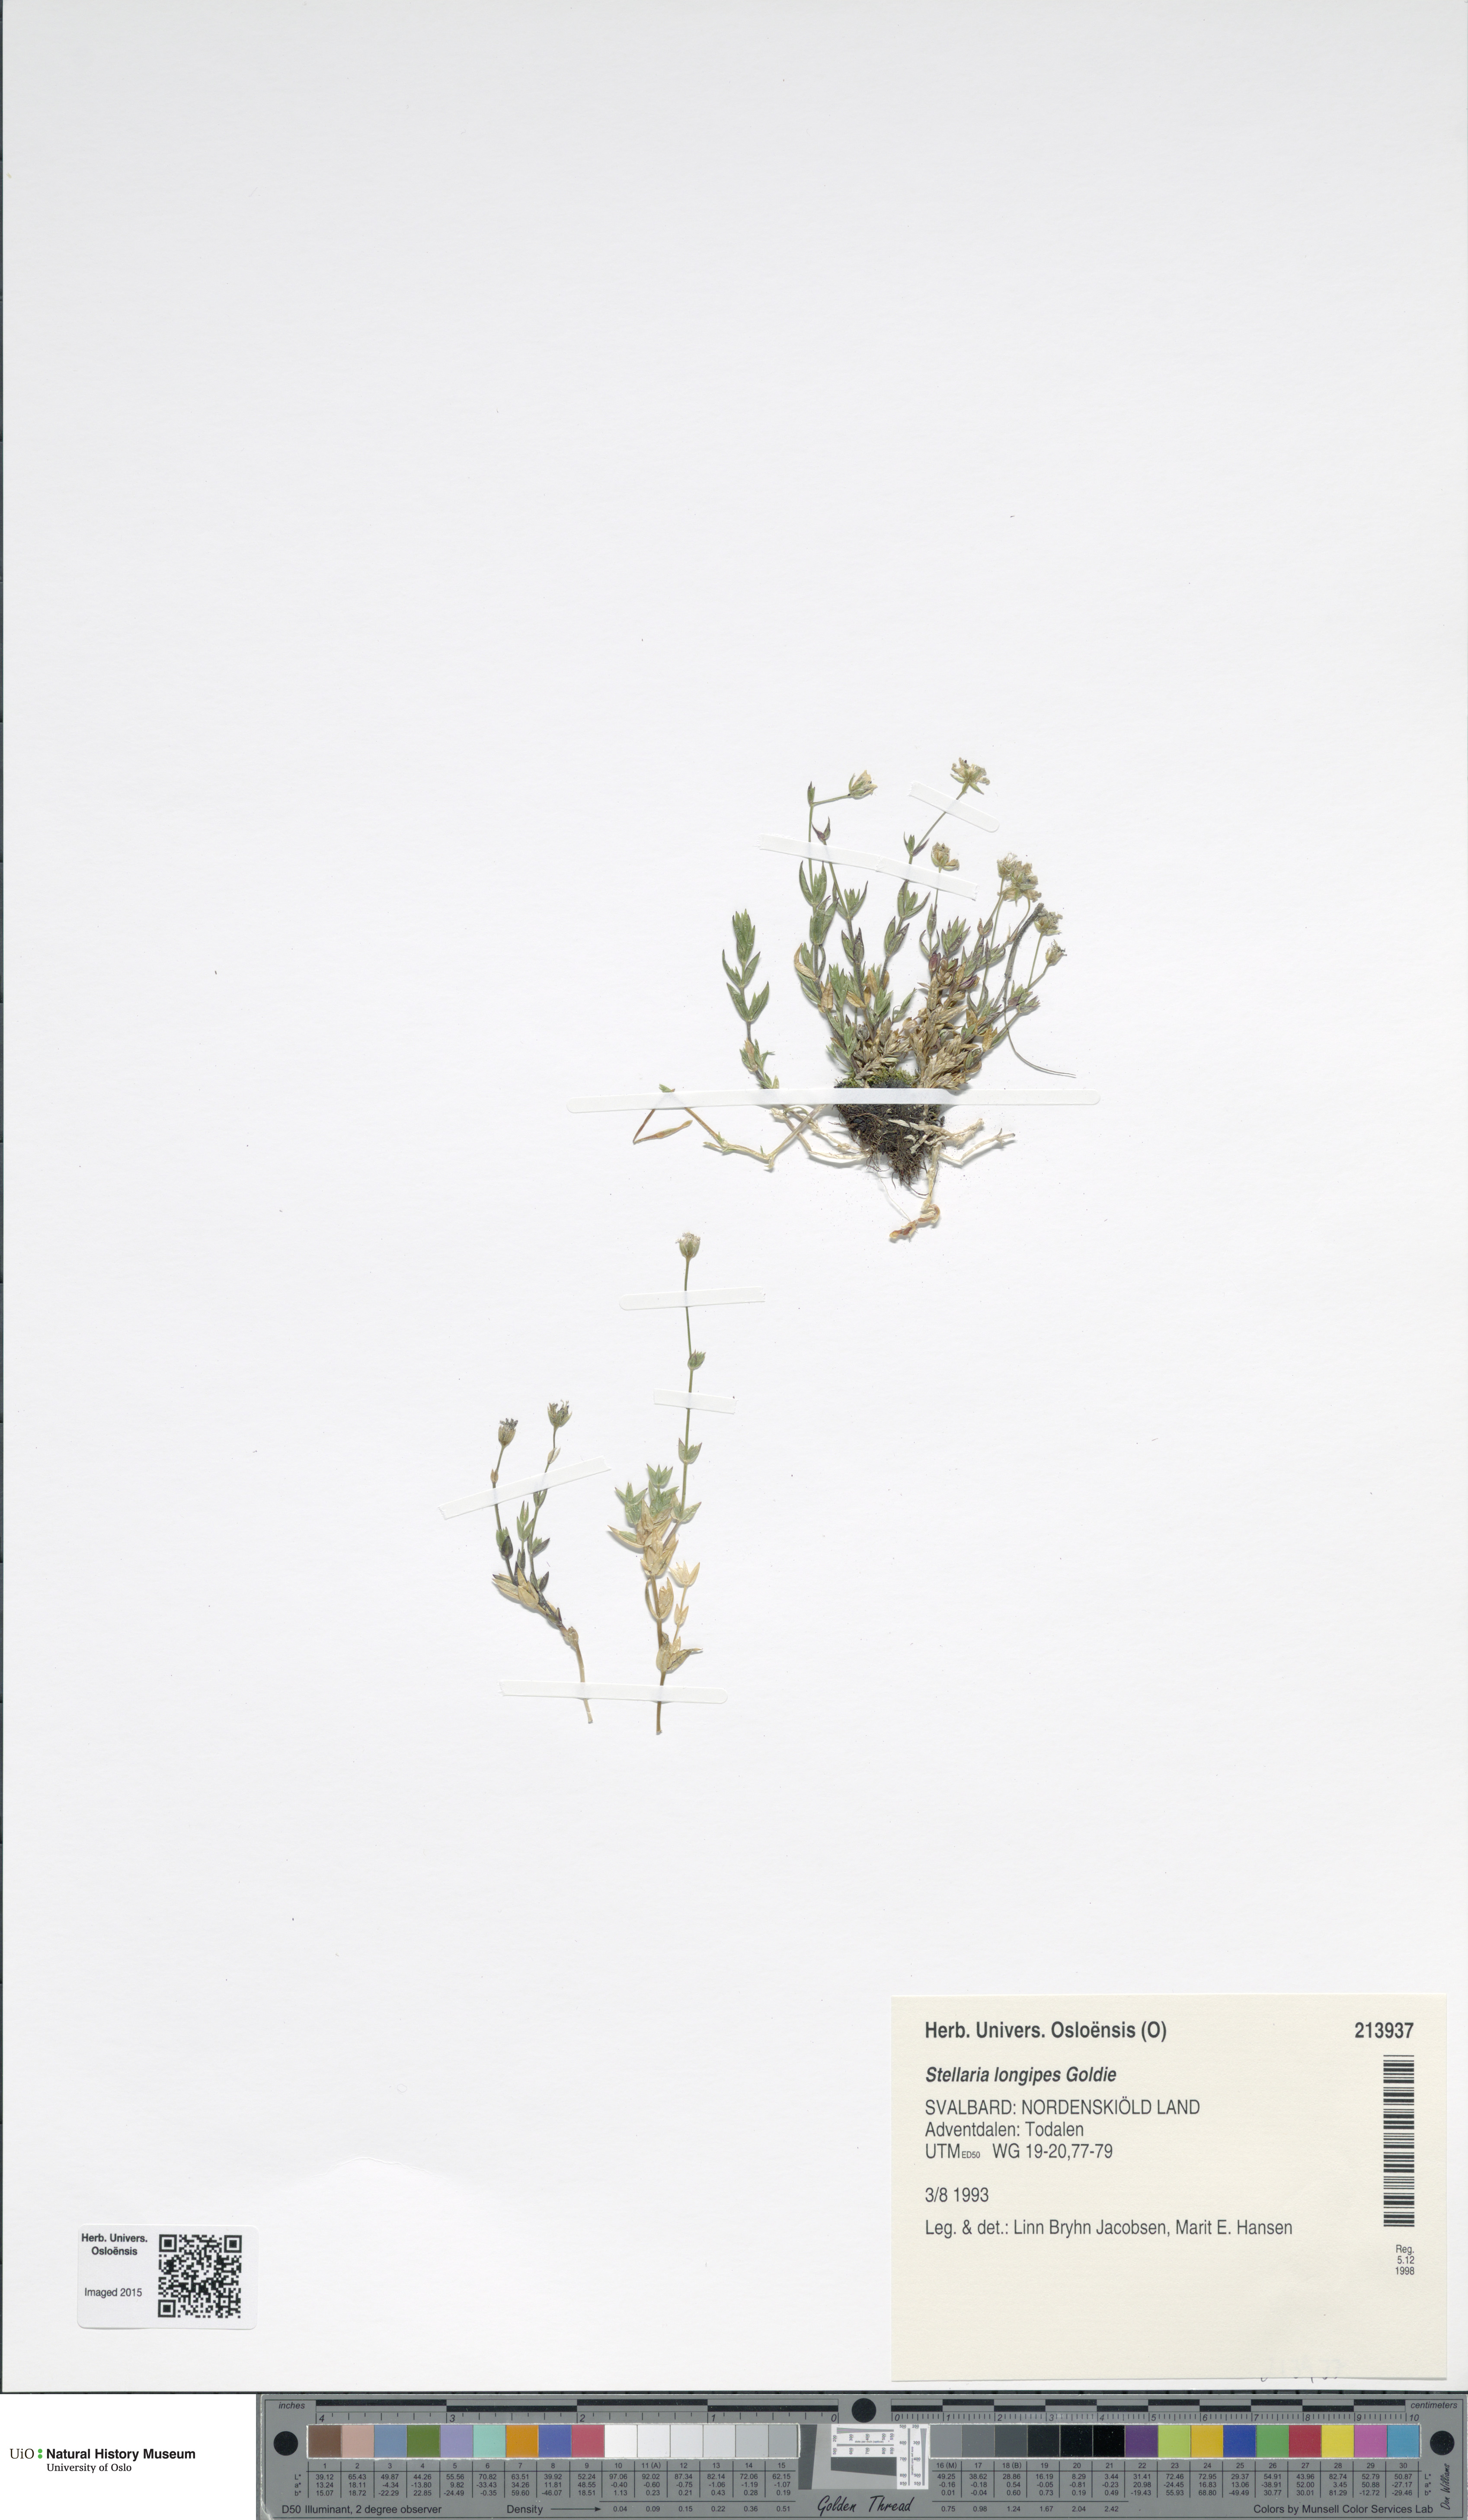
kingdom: Plantae
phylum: Tracheophyta
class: Magnoliopsida
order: Caryophyllales
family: Caryophyllaceae
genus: Stellaria
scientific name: Stellaria longipes
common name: Goldie's starwort
